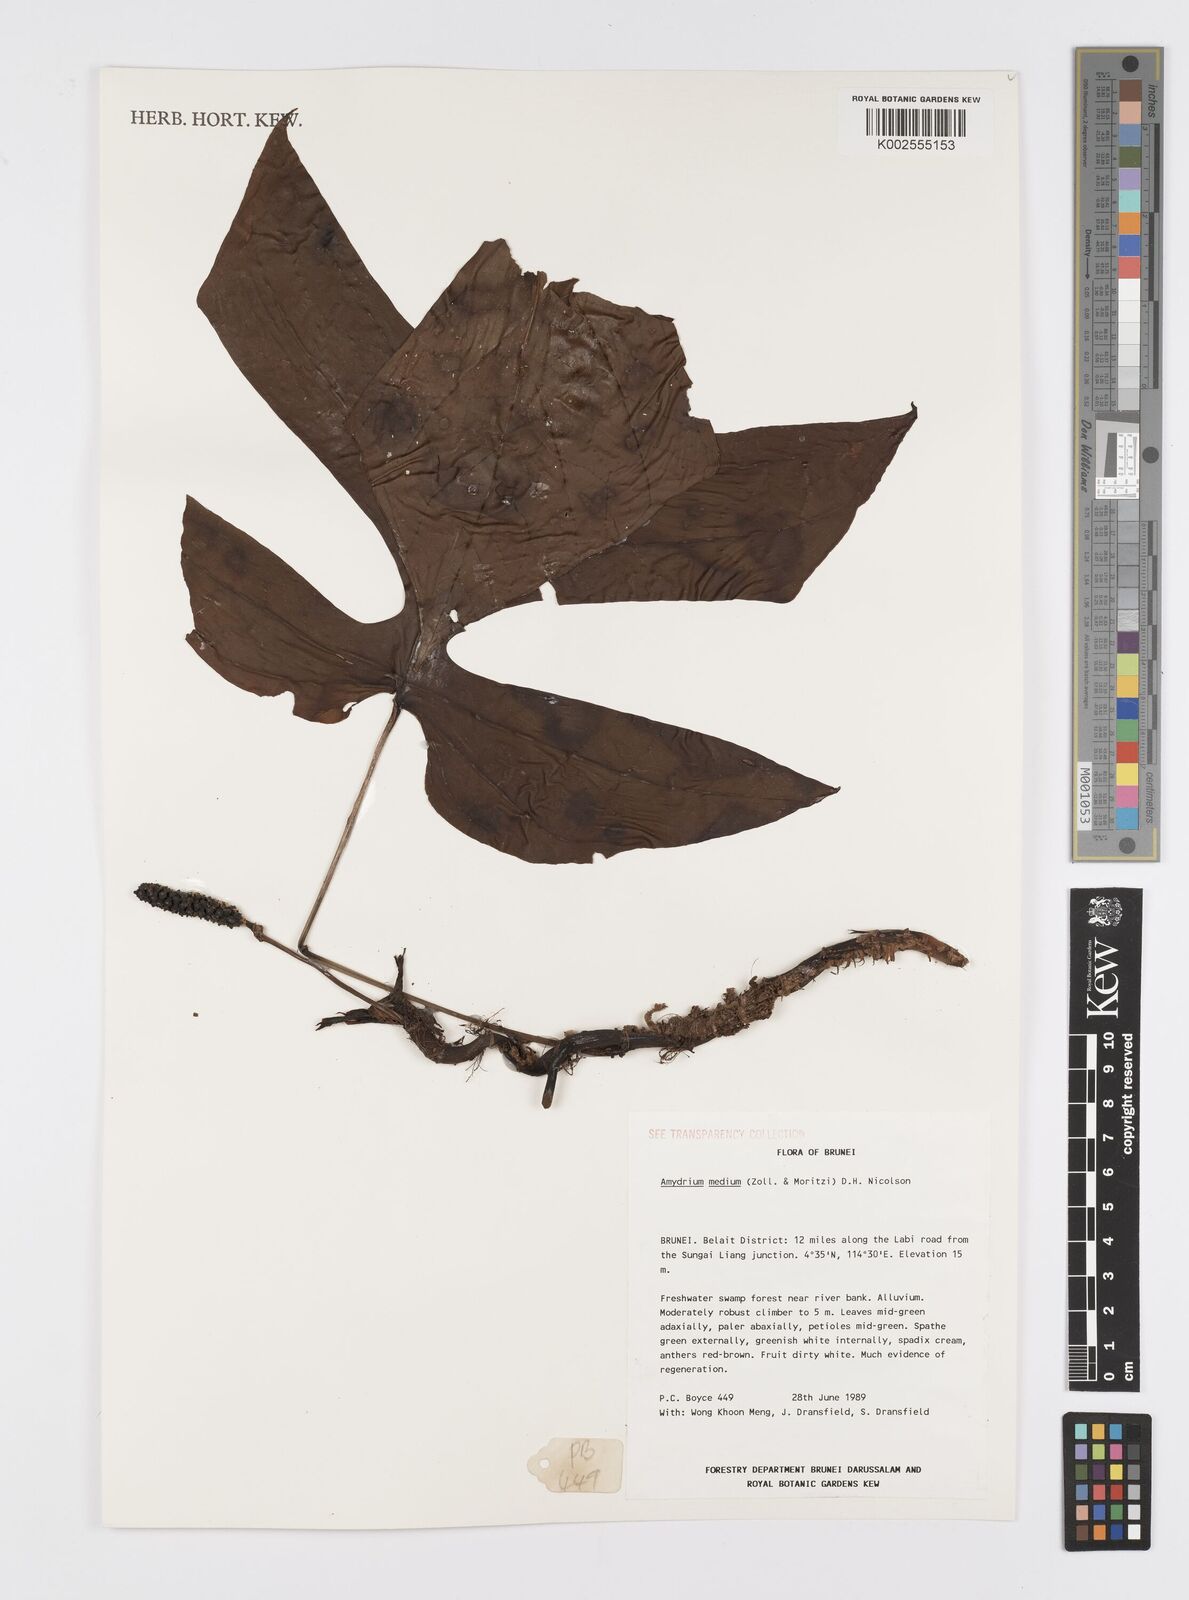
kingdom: Plantae
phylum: Tracheophyta
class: Liliopsida
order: Alismatales
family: Araceae
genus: Amydrium
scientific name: Amydrium medium
